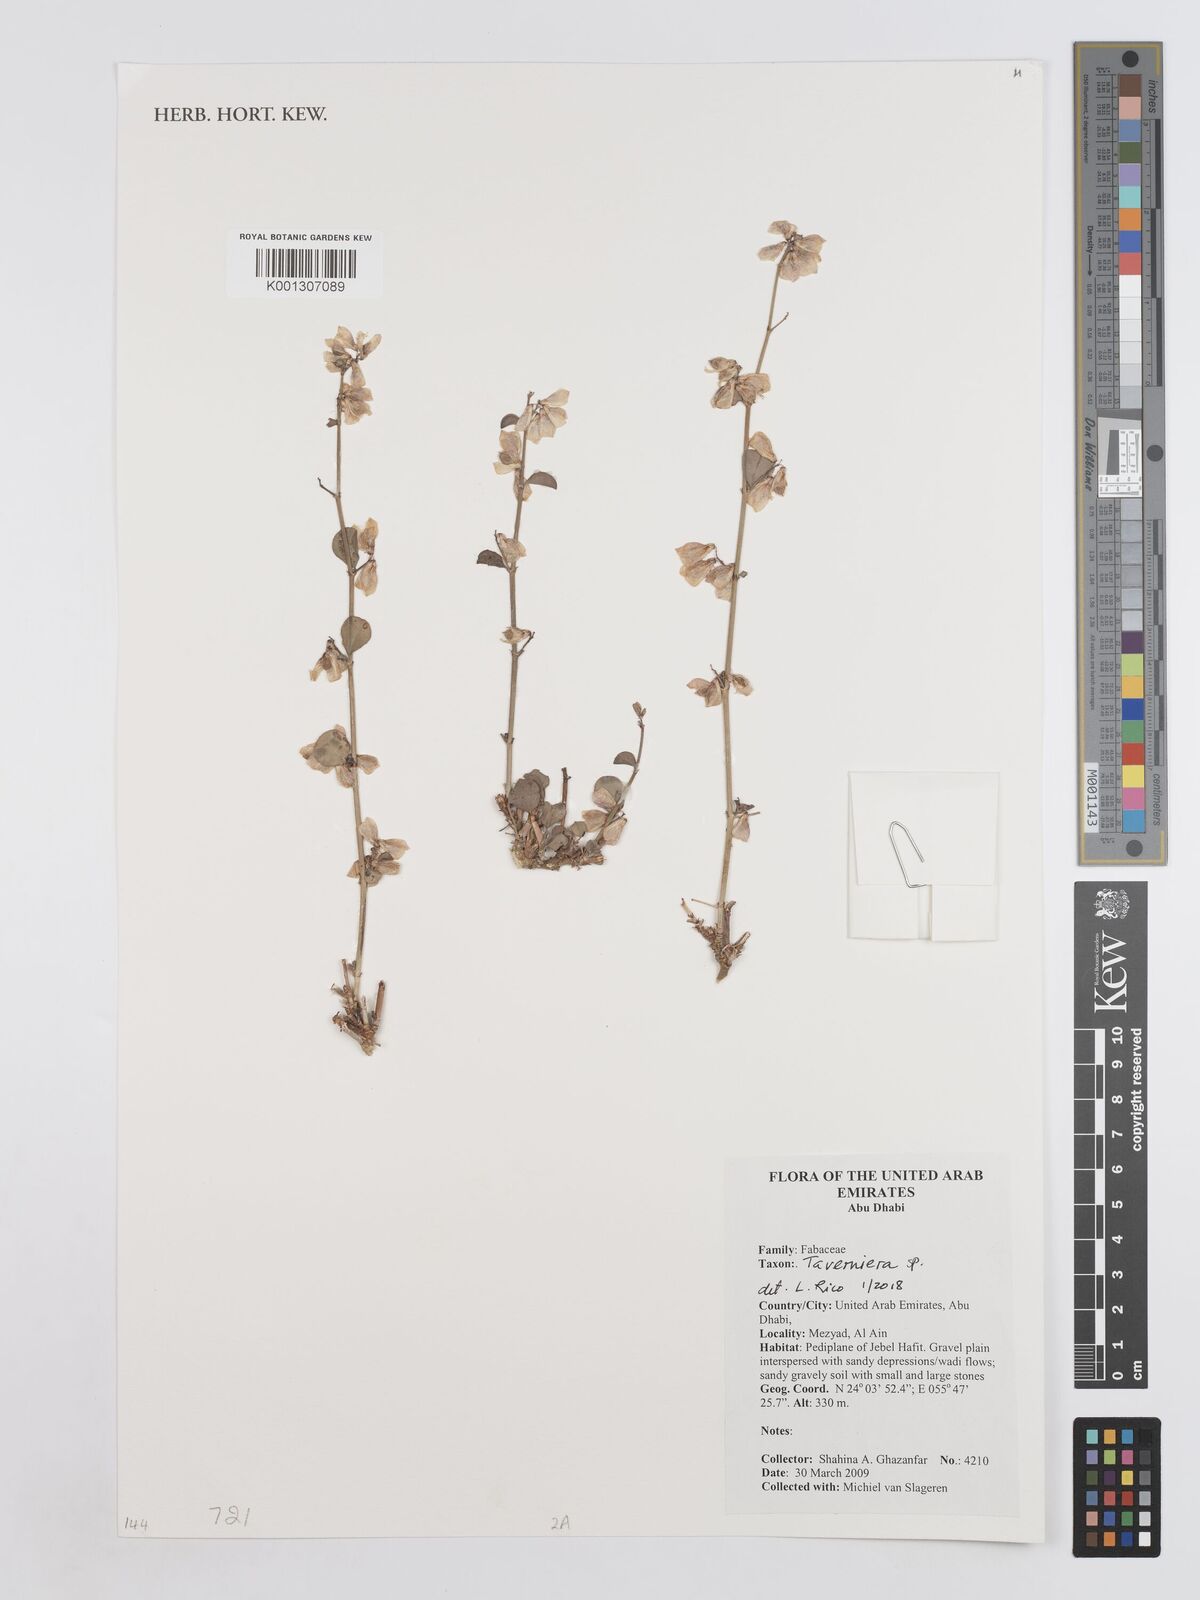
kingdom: Plantae
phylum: Tracheophyta
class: Magnoliopsida
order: Fabales
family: Fabaceae
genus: Taverniera
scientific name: Taverniera
